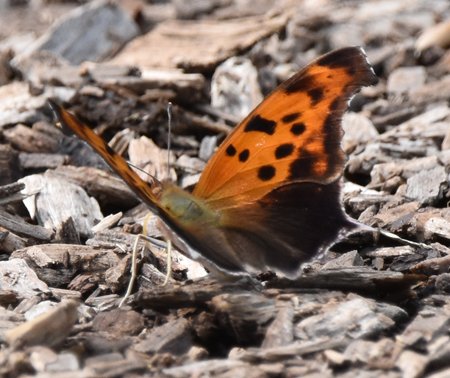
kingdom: Animalia
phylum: Arthropoda
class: Insecta
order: Lepidoptera
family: Nymphalidae
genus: Polygonia
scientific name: Polygonia interrogationis
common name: Question Mark
